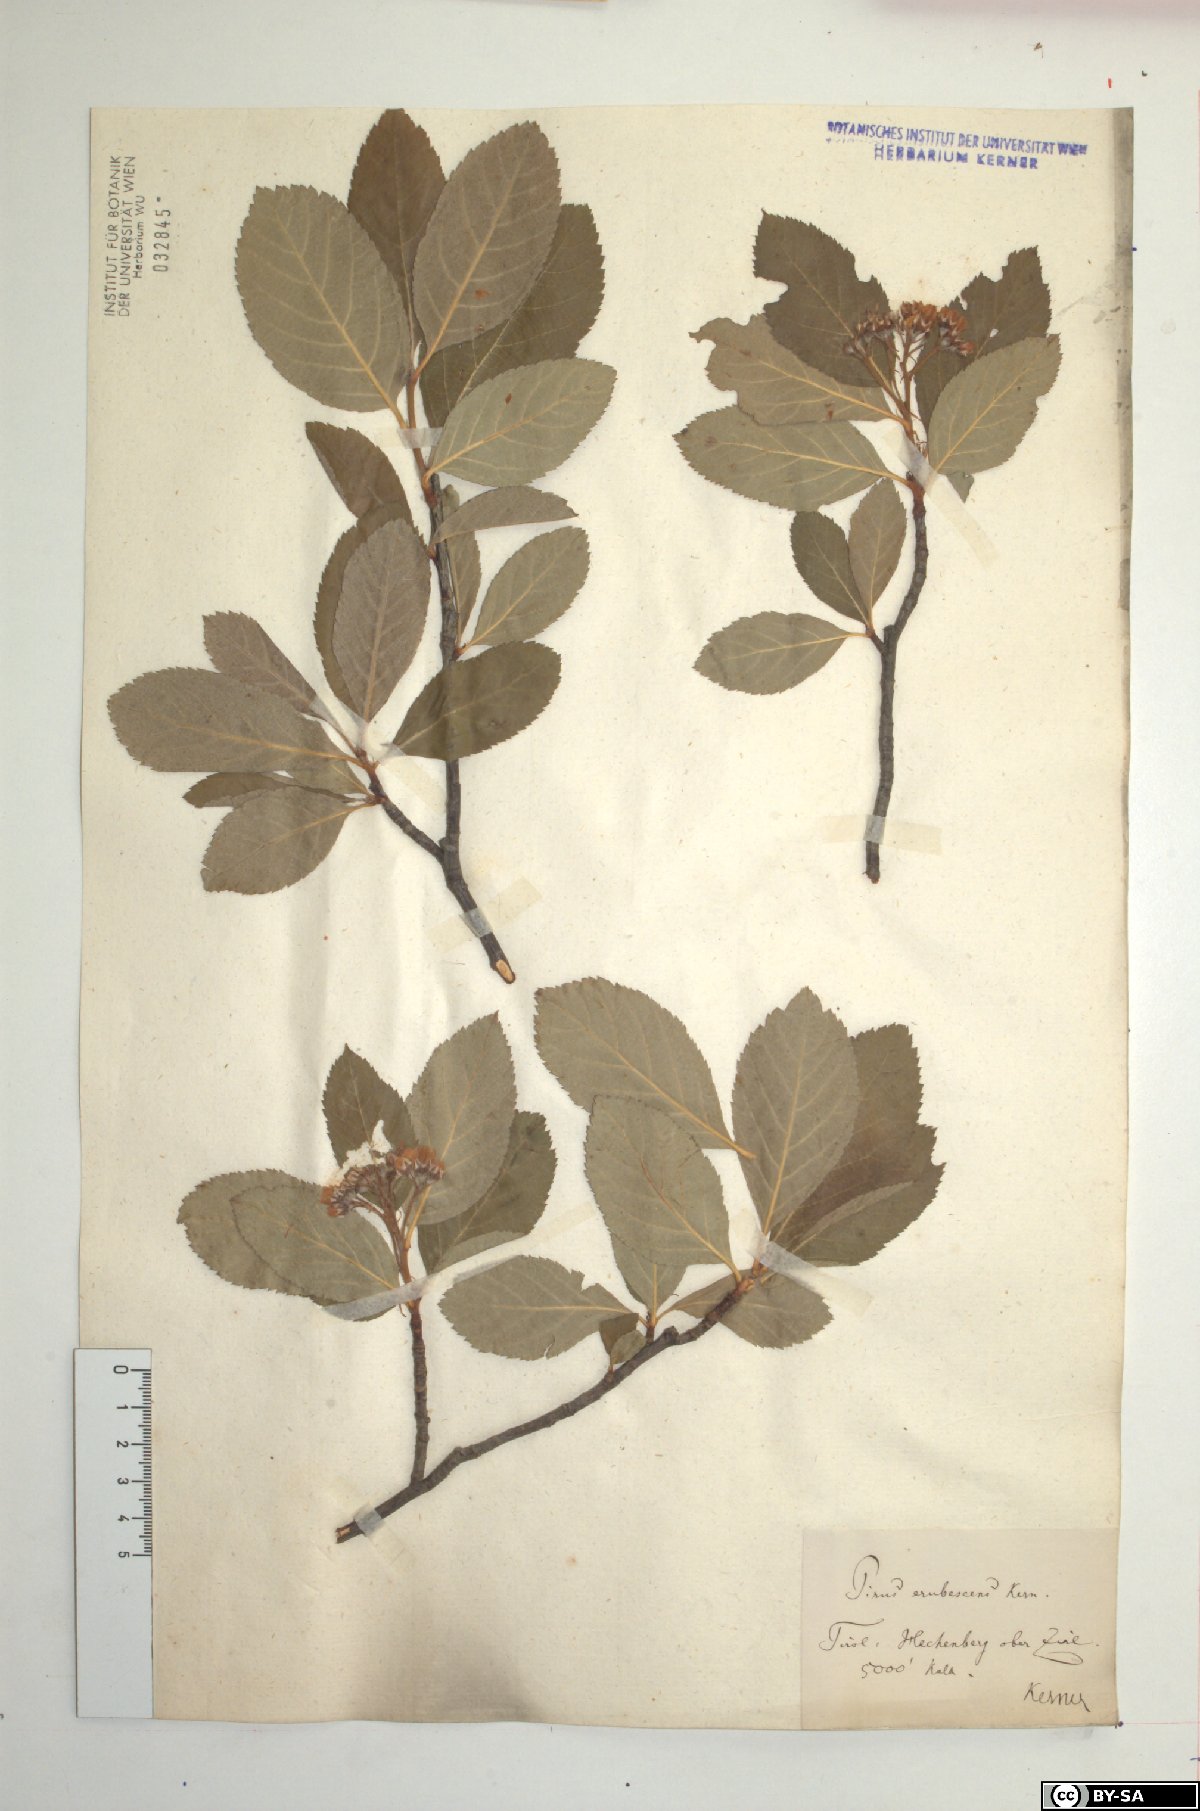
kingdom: Plantae
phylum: Tracheophyta
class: Magnoliopsida
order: Rosales
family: Rosaceae
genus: Majovskya
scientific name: Majovskya sudetica
